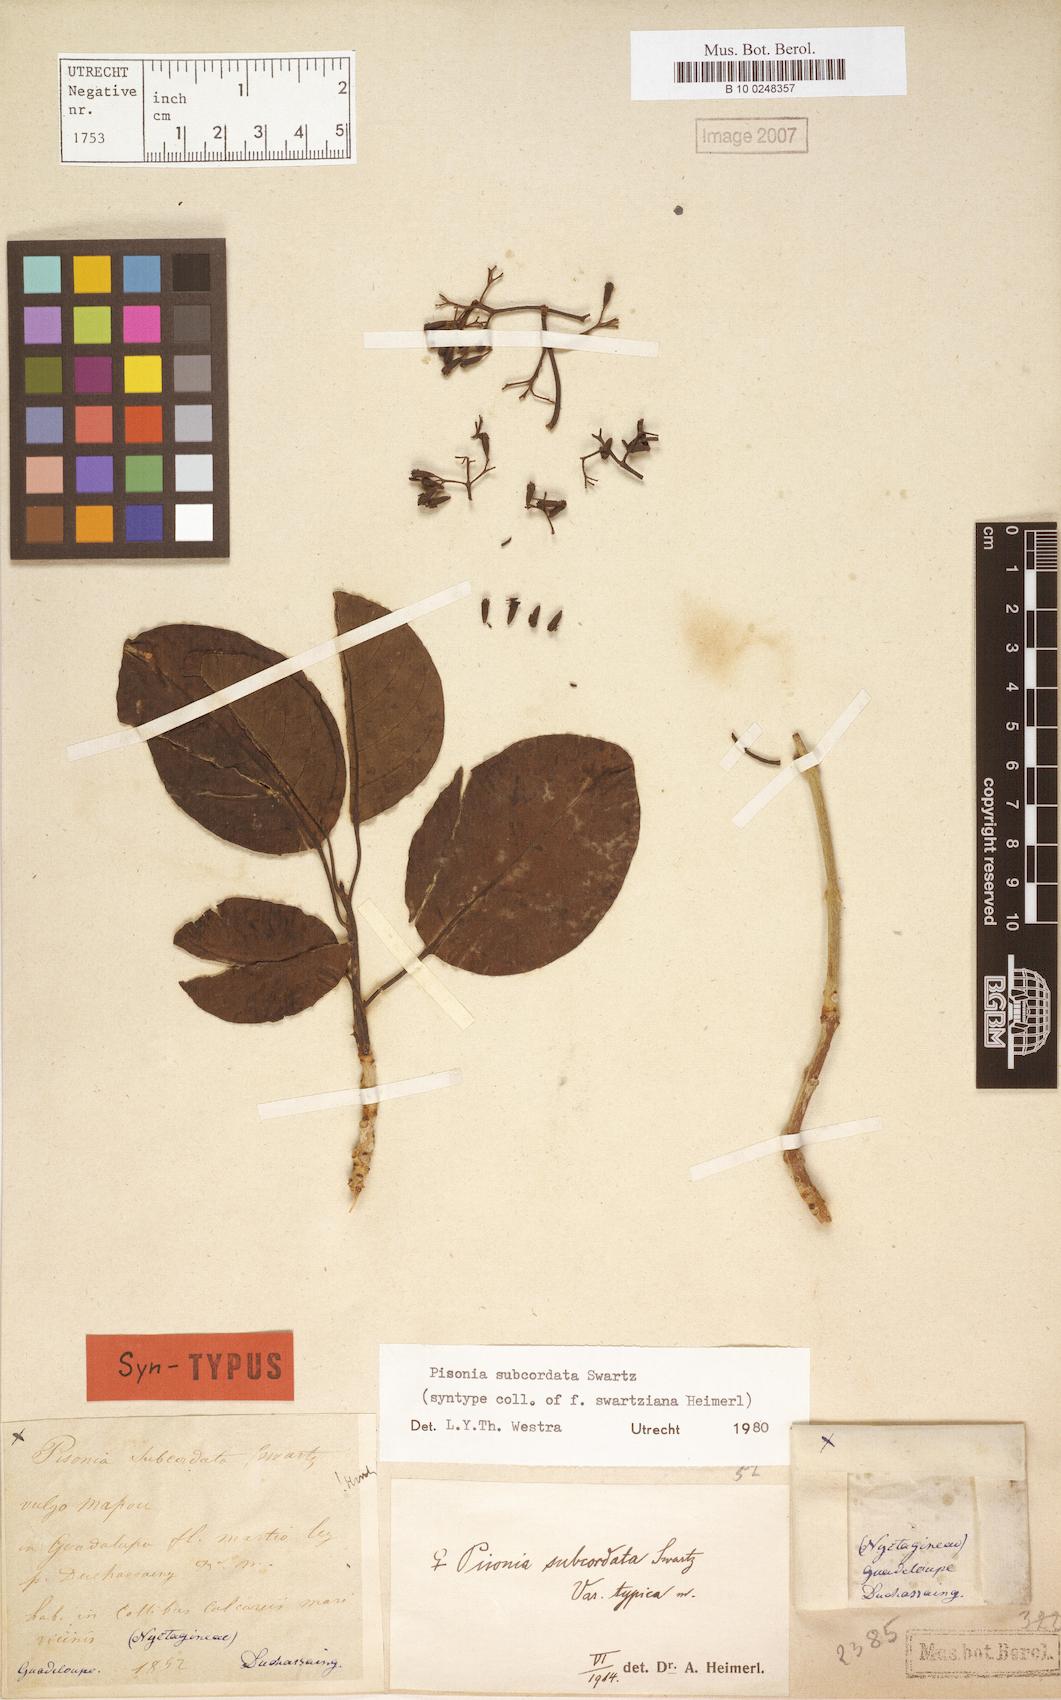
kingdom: Plantae
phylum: Tracheophyta
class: Magnoliopsida
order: Caryophyllales
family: Nyctaginaceae
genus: Pisonia
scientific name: Pisonia subcordata
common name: Mampoo
